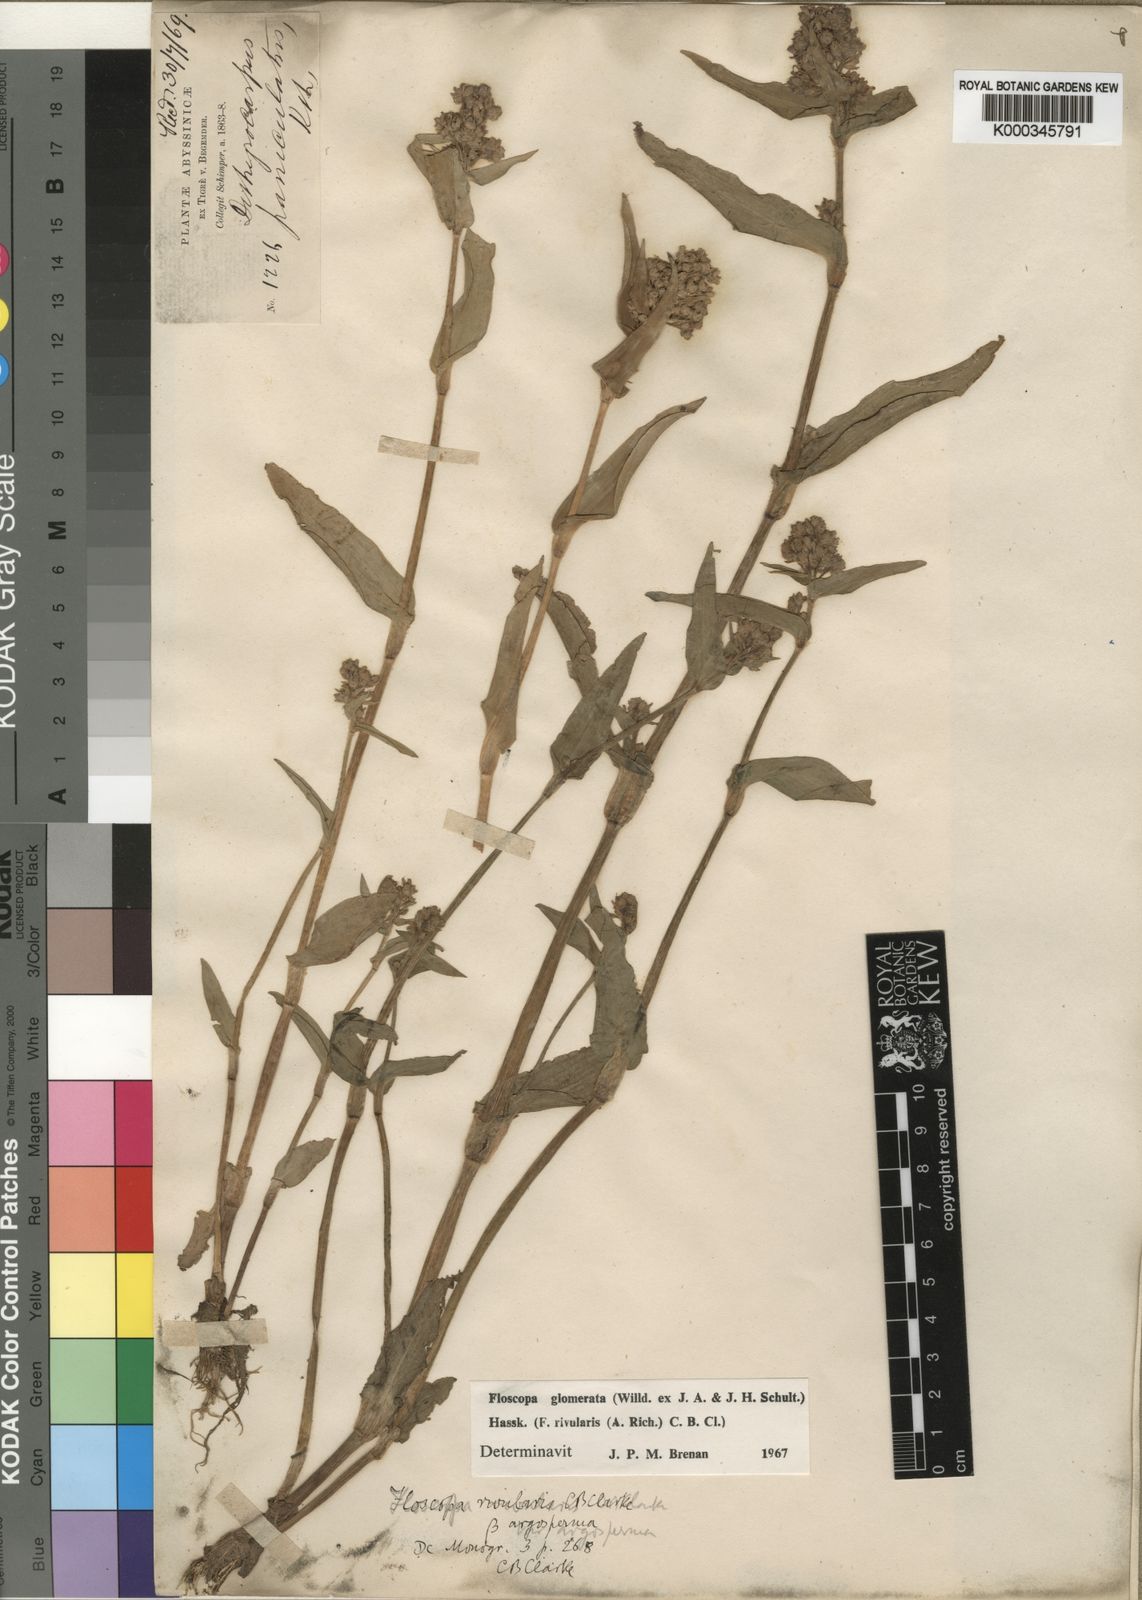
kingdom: Plantae
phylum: Tracheophyta
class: Liliopsida
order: Commelinales
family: Commelinaceae
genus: Floscopa
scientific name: Floscopa glomerata
